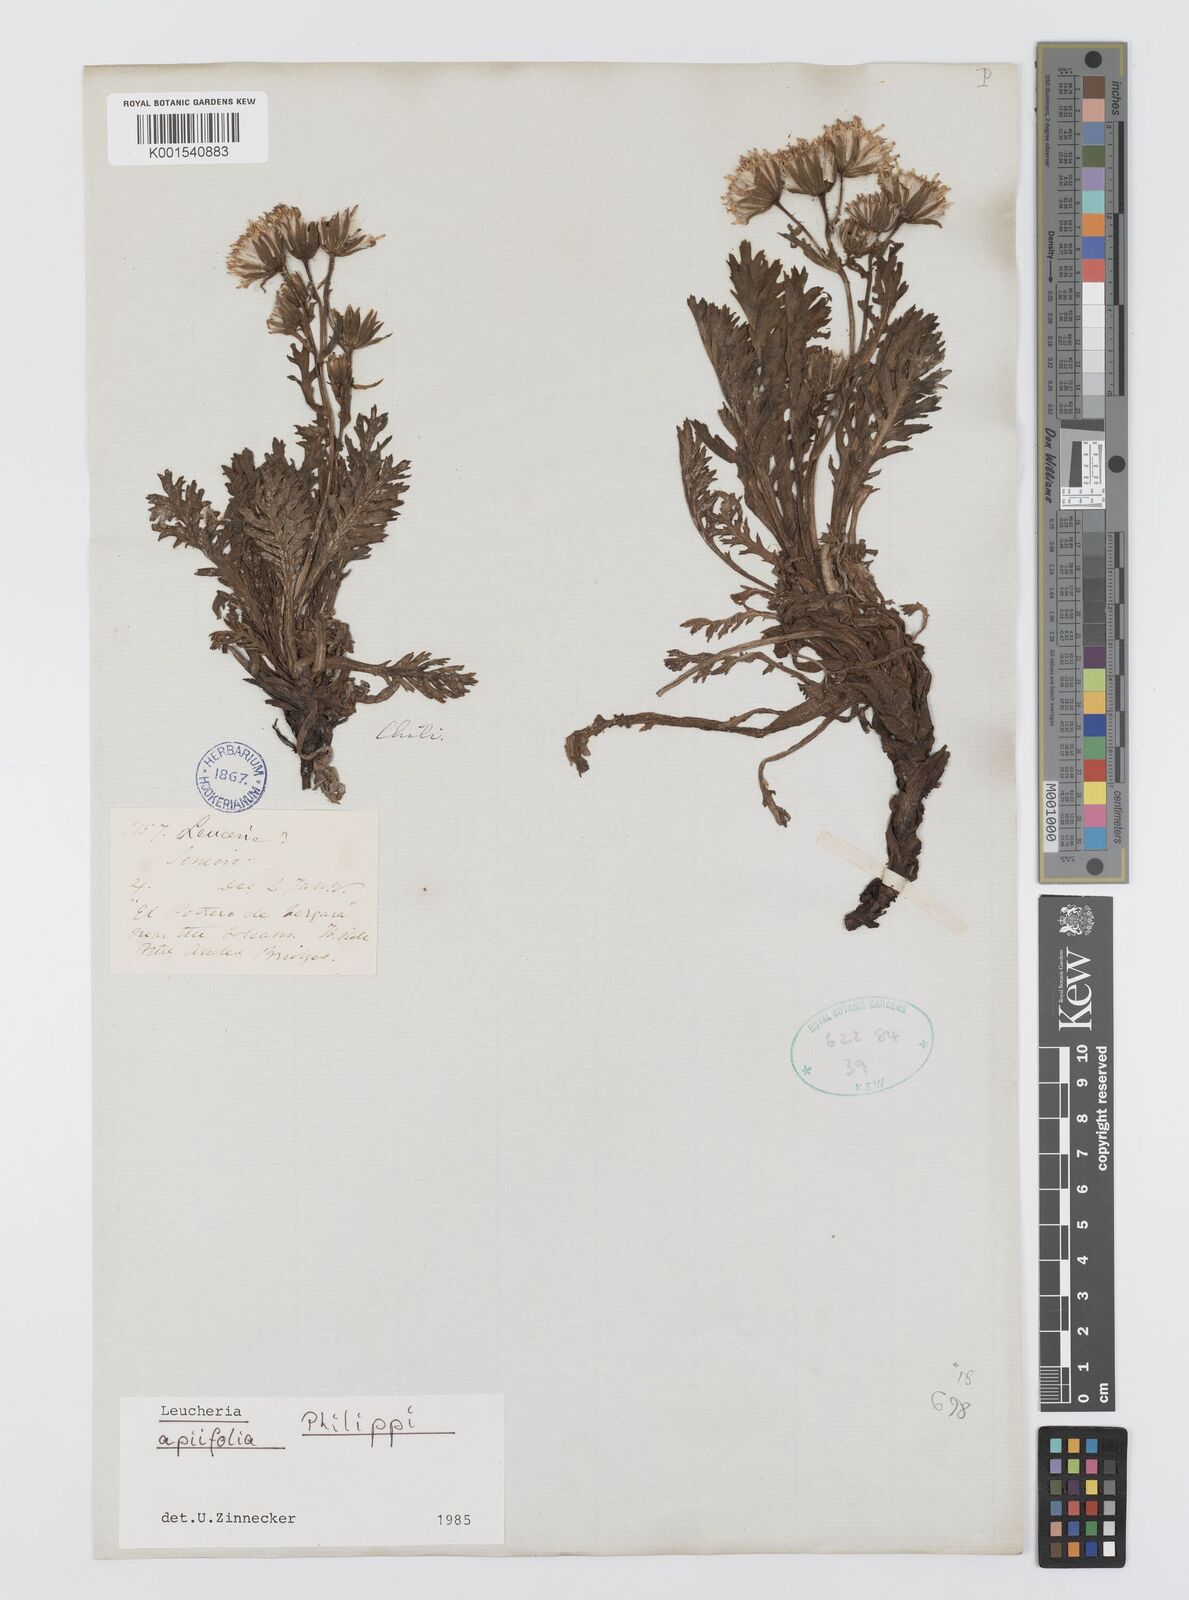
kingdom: Plantae
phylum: Tracheophyta
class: Magnoliopsida
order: Asterales
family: Asteraceae
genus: Leucheria
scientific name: Leucheria apiifolia
